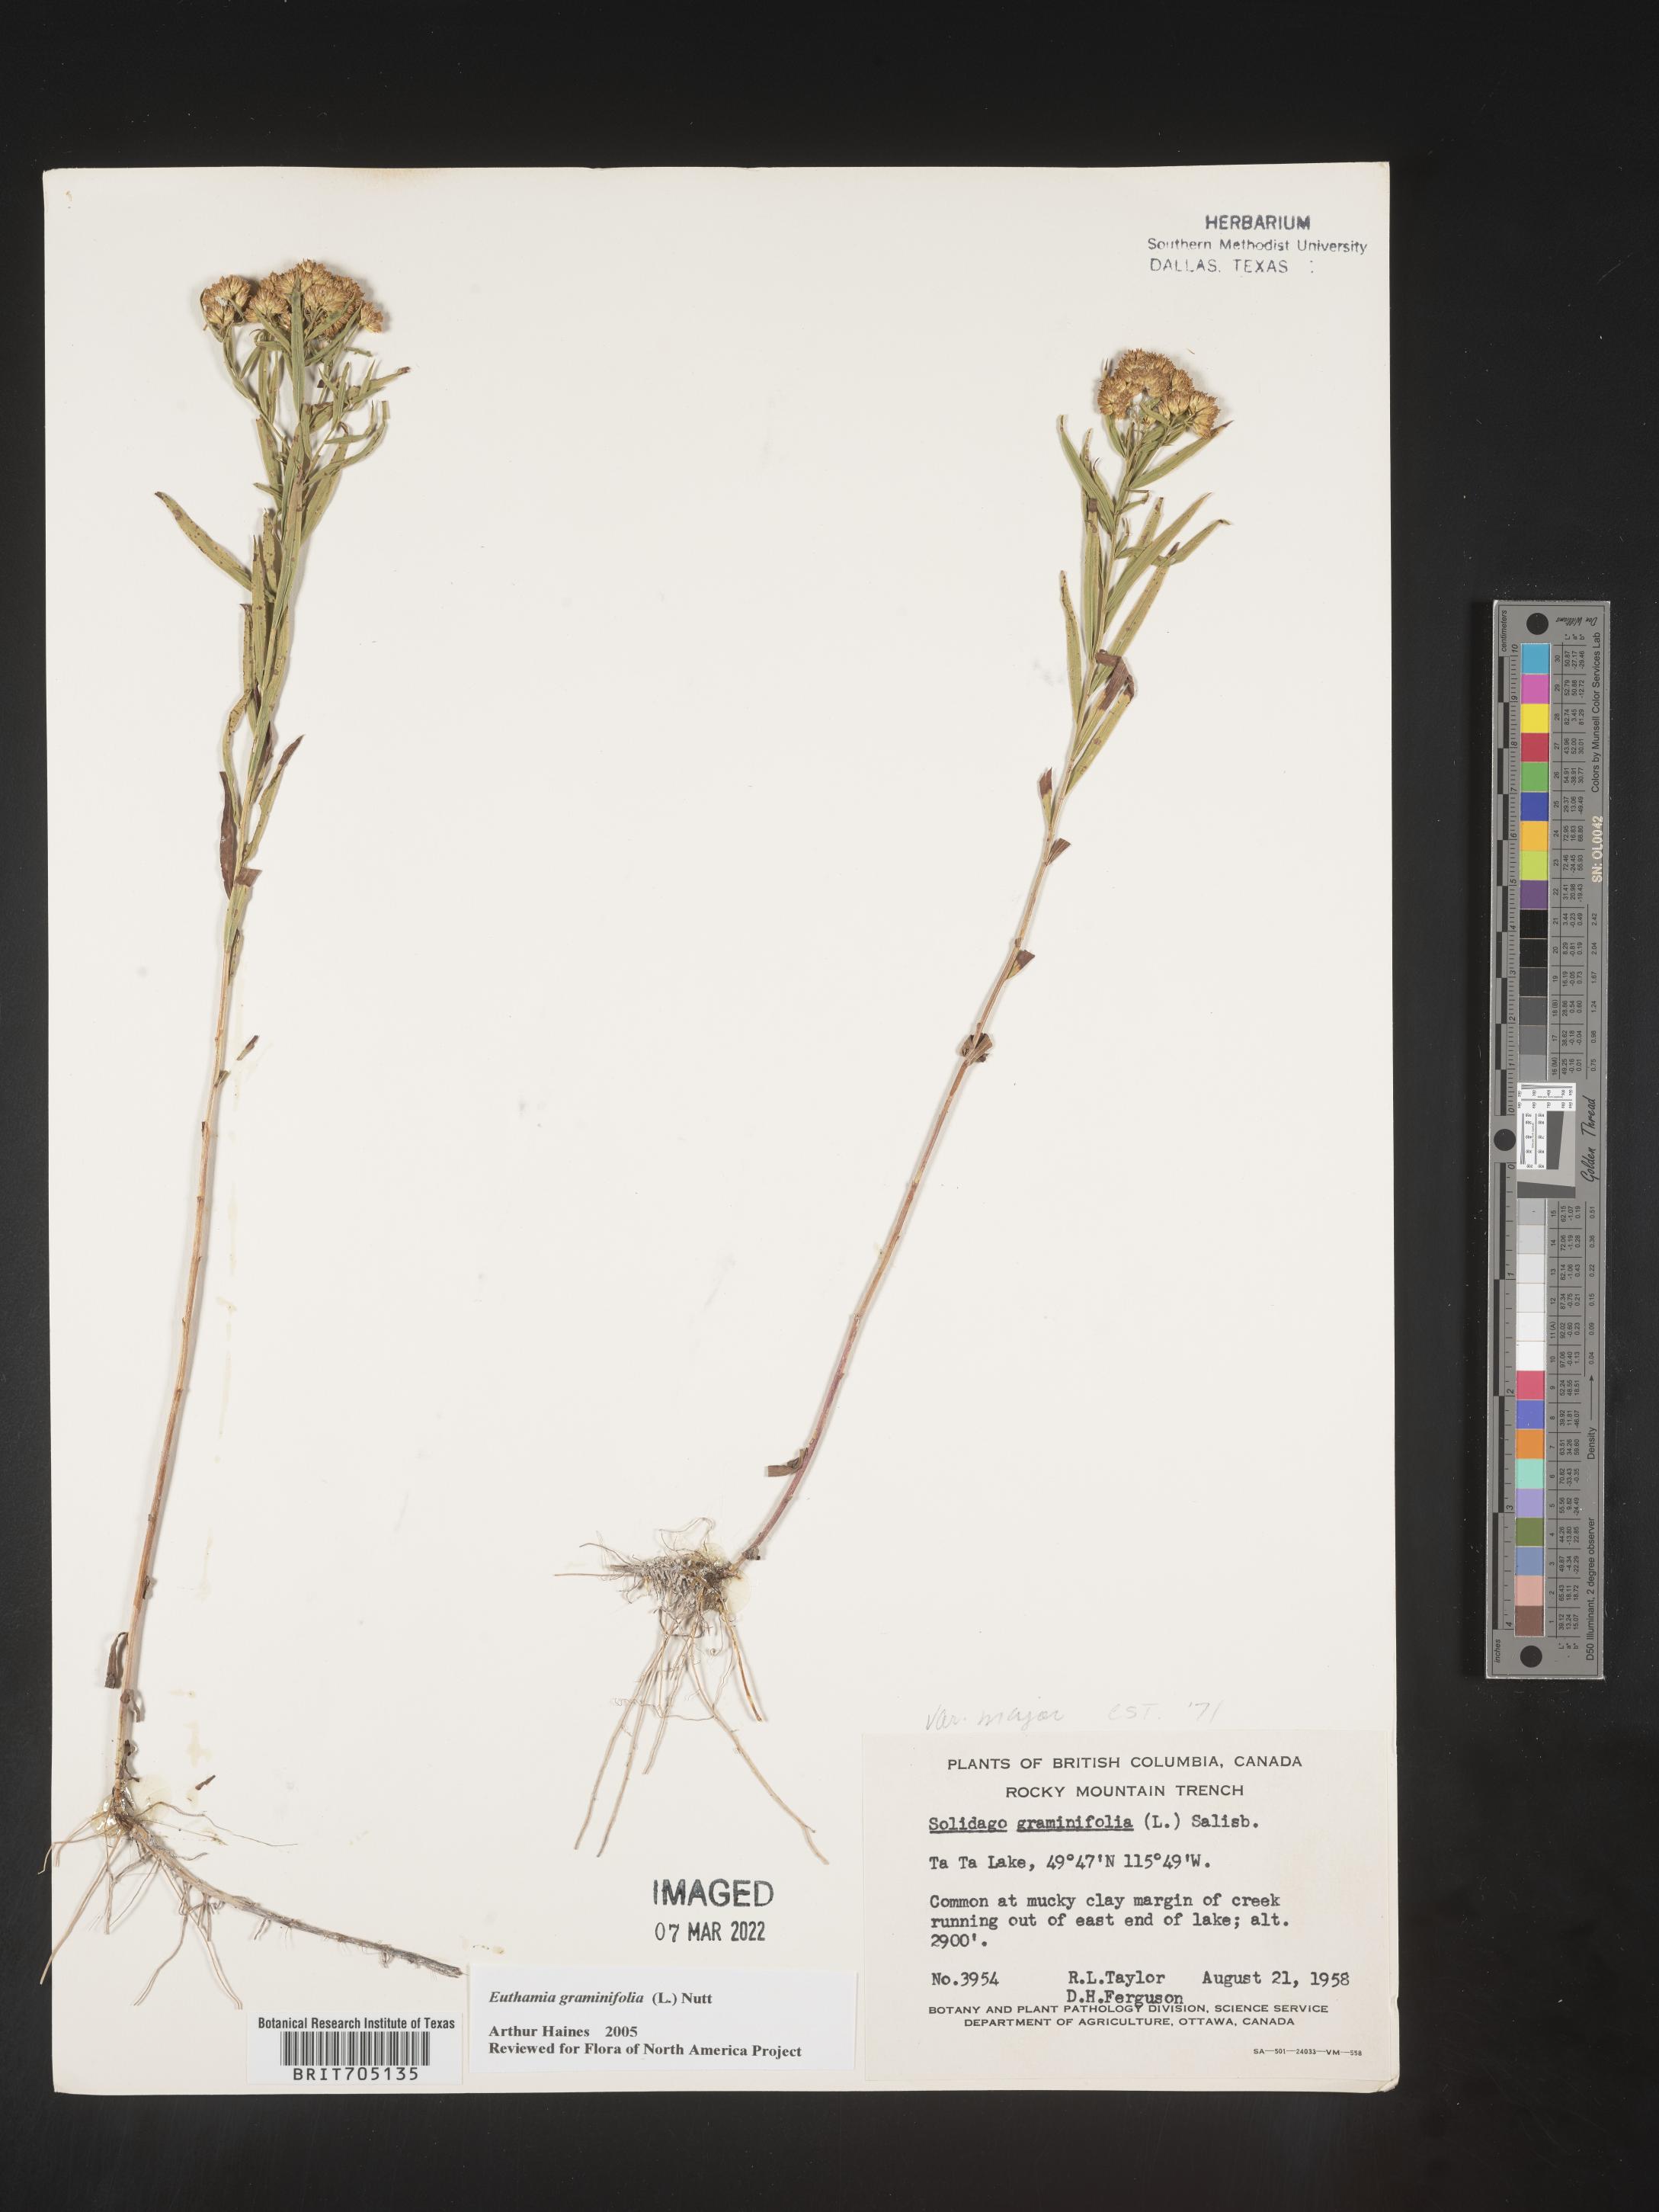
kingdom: Plantae
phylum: Tracheophyta
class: Magnoliopsida
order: Asterales
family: Asteraceae
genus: Euthamia
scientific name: Euthamia graminifolia
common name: Common goldentop
